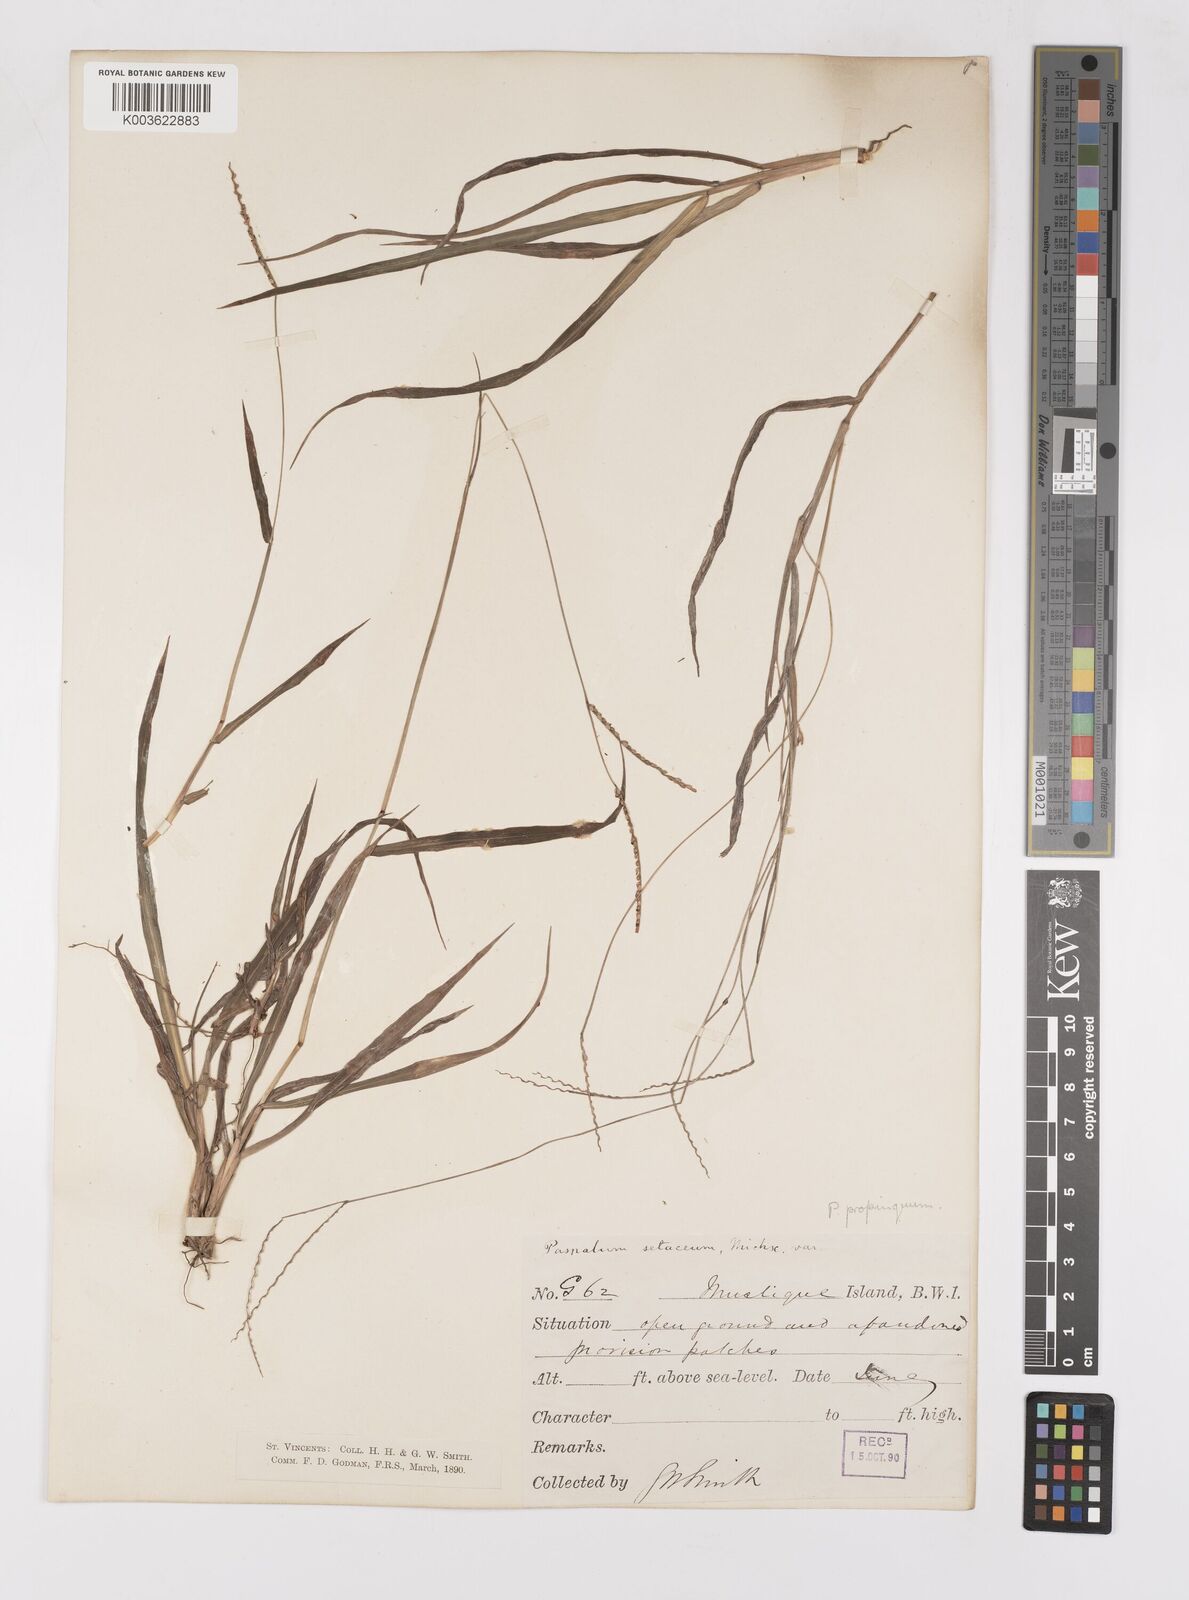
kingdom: Plantae
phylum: Tracheophyta
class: Liliopsida
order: Poales
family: Poaceae
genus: Paspalum
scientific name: Paspalum laxum
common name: Coconut paspalum
